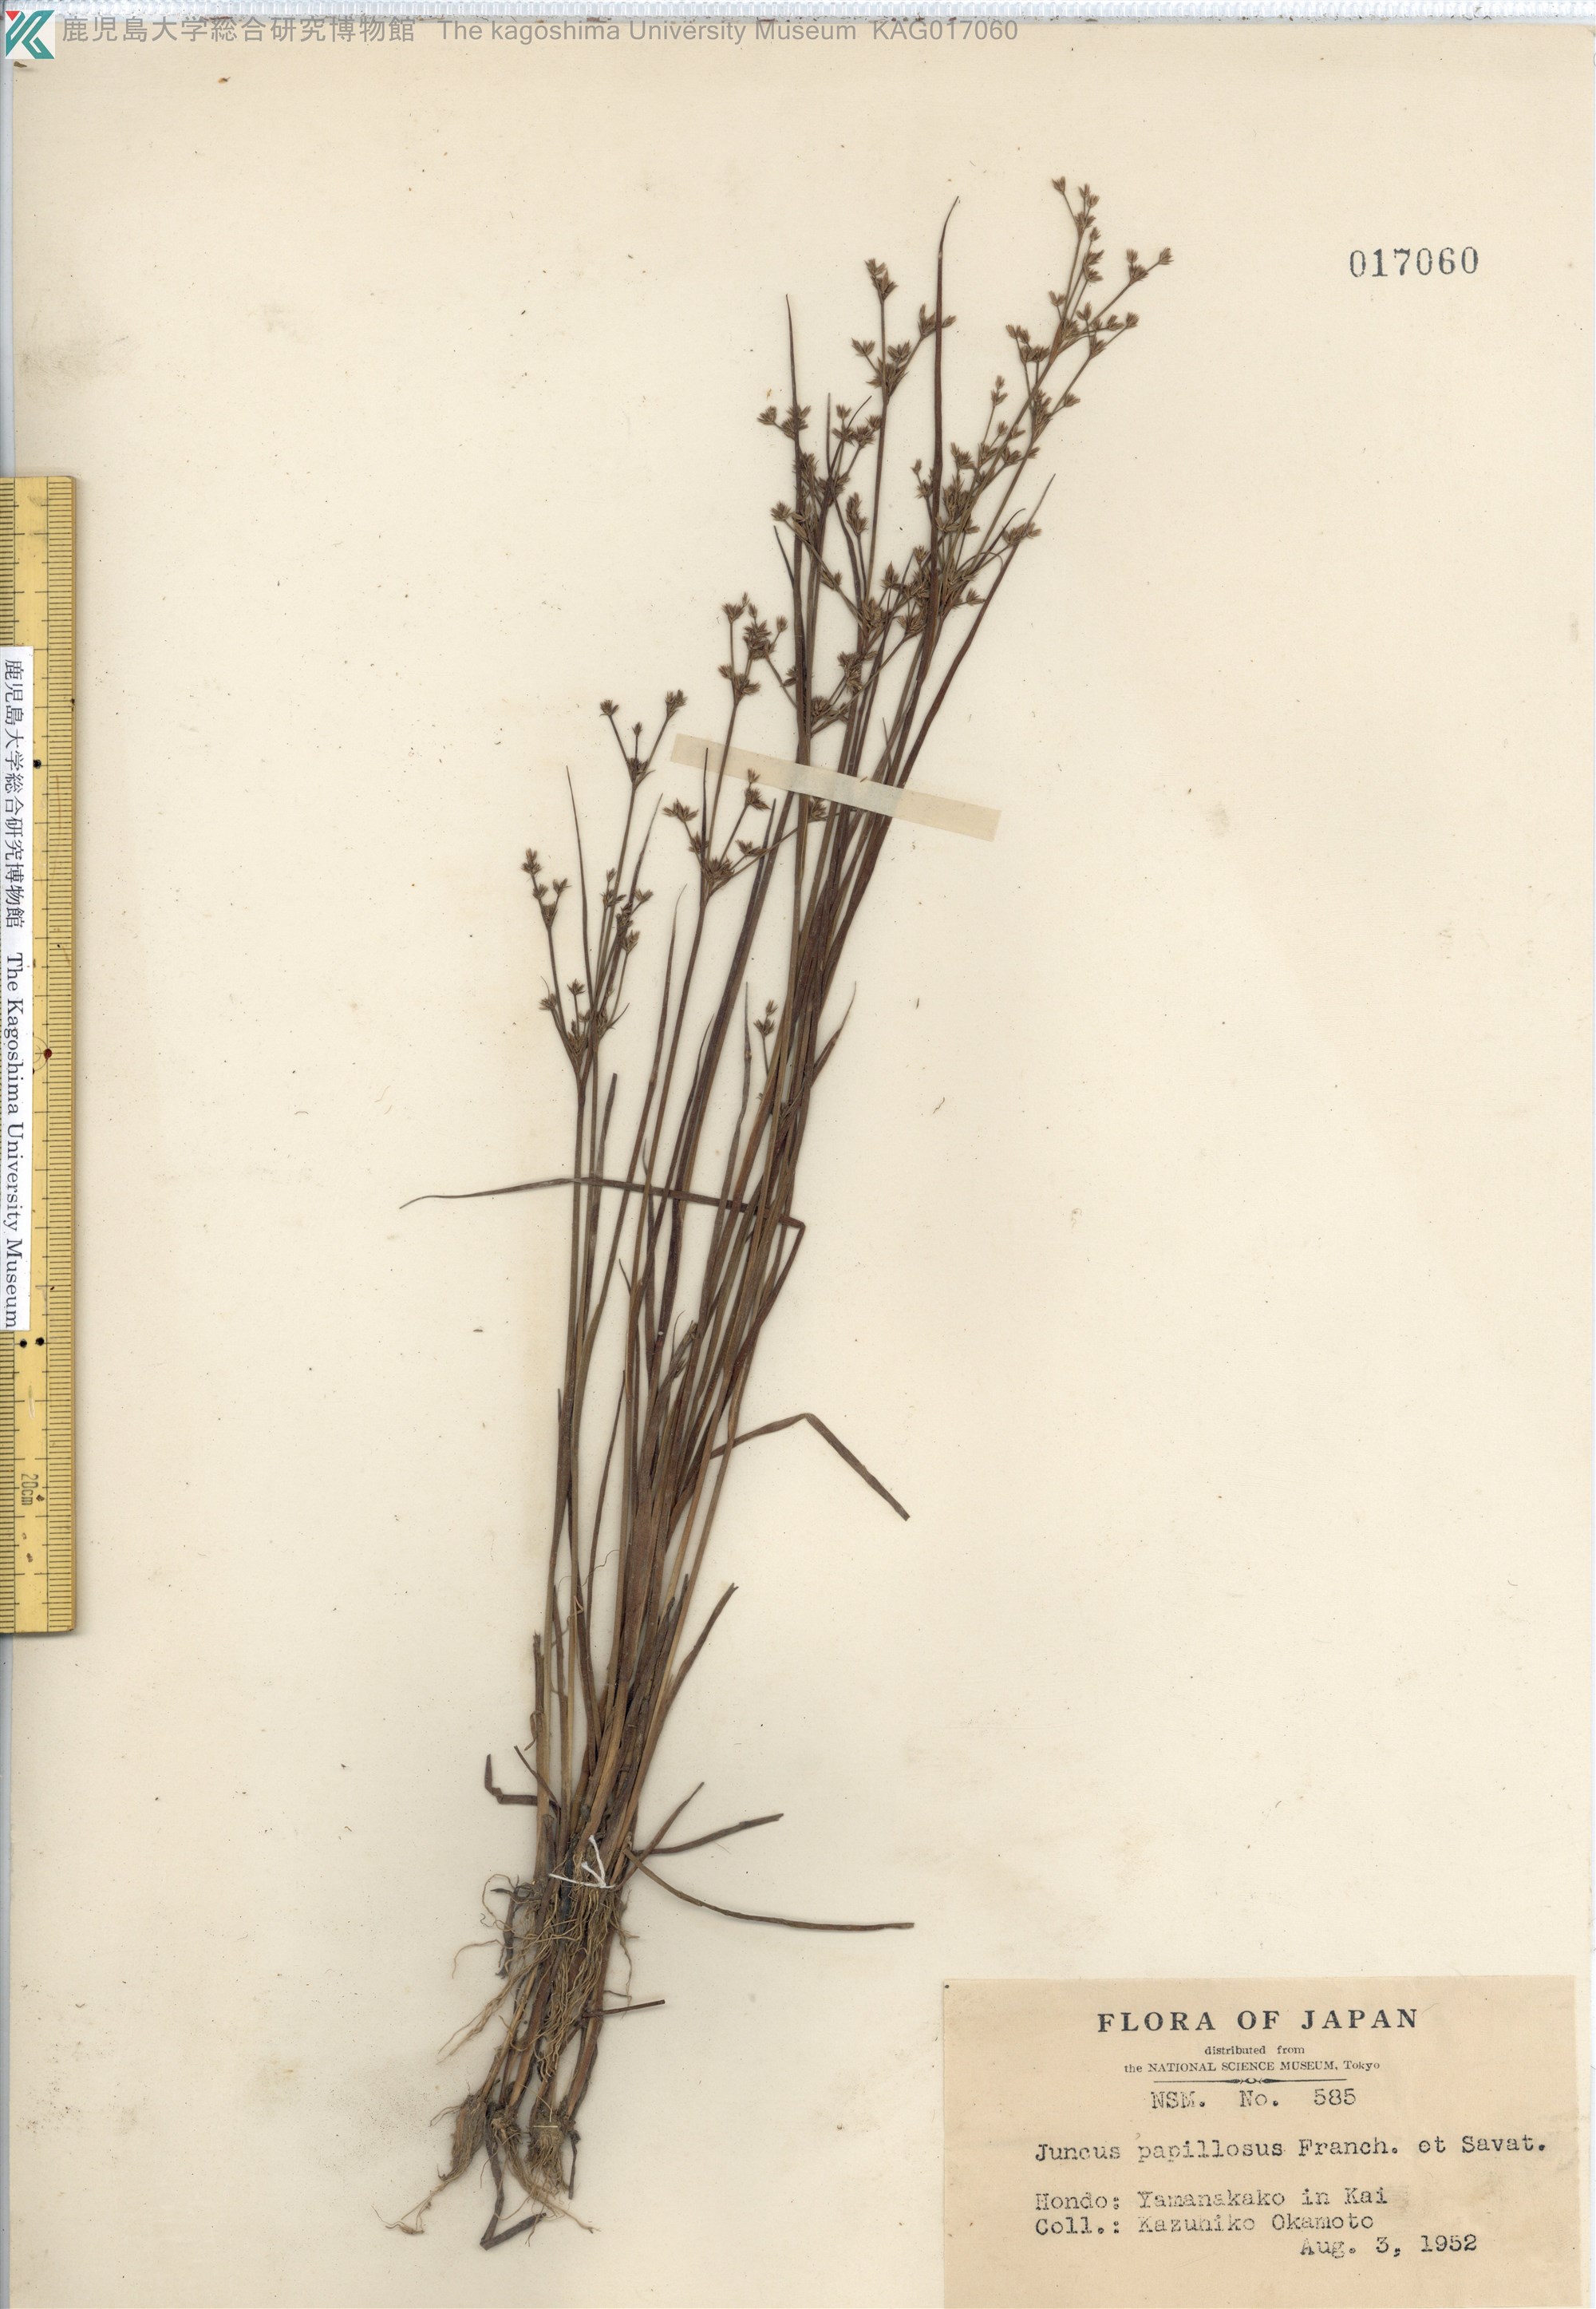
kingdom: Plantae
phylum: Tracheophyta
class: Liliopsida
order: Poales
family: Juncaceae
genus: Juncus
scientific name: Juncus papillosus
